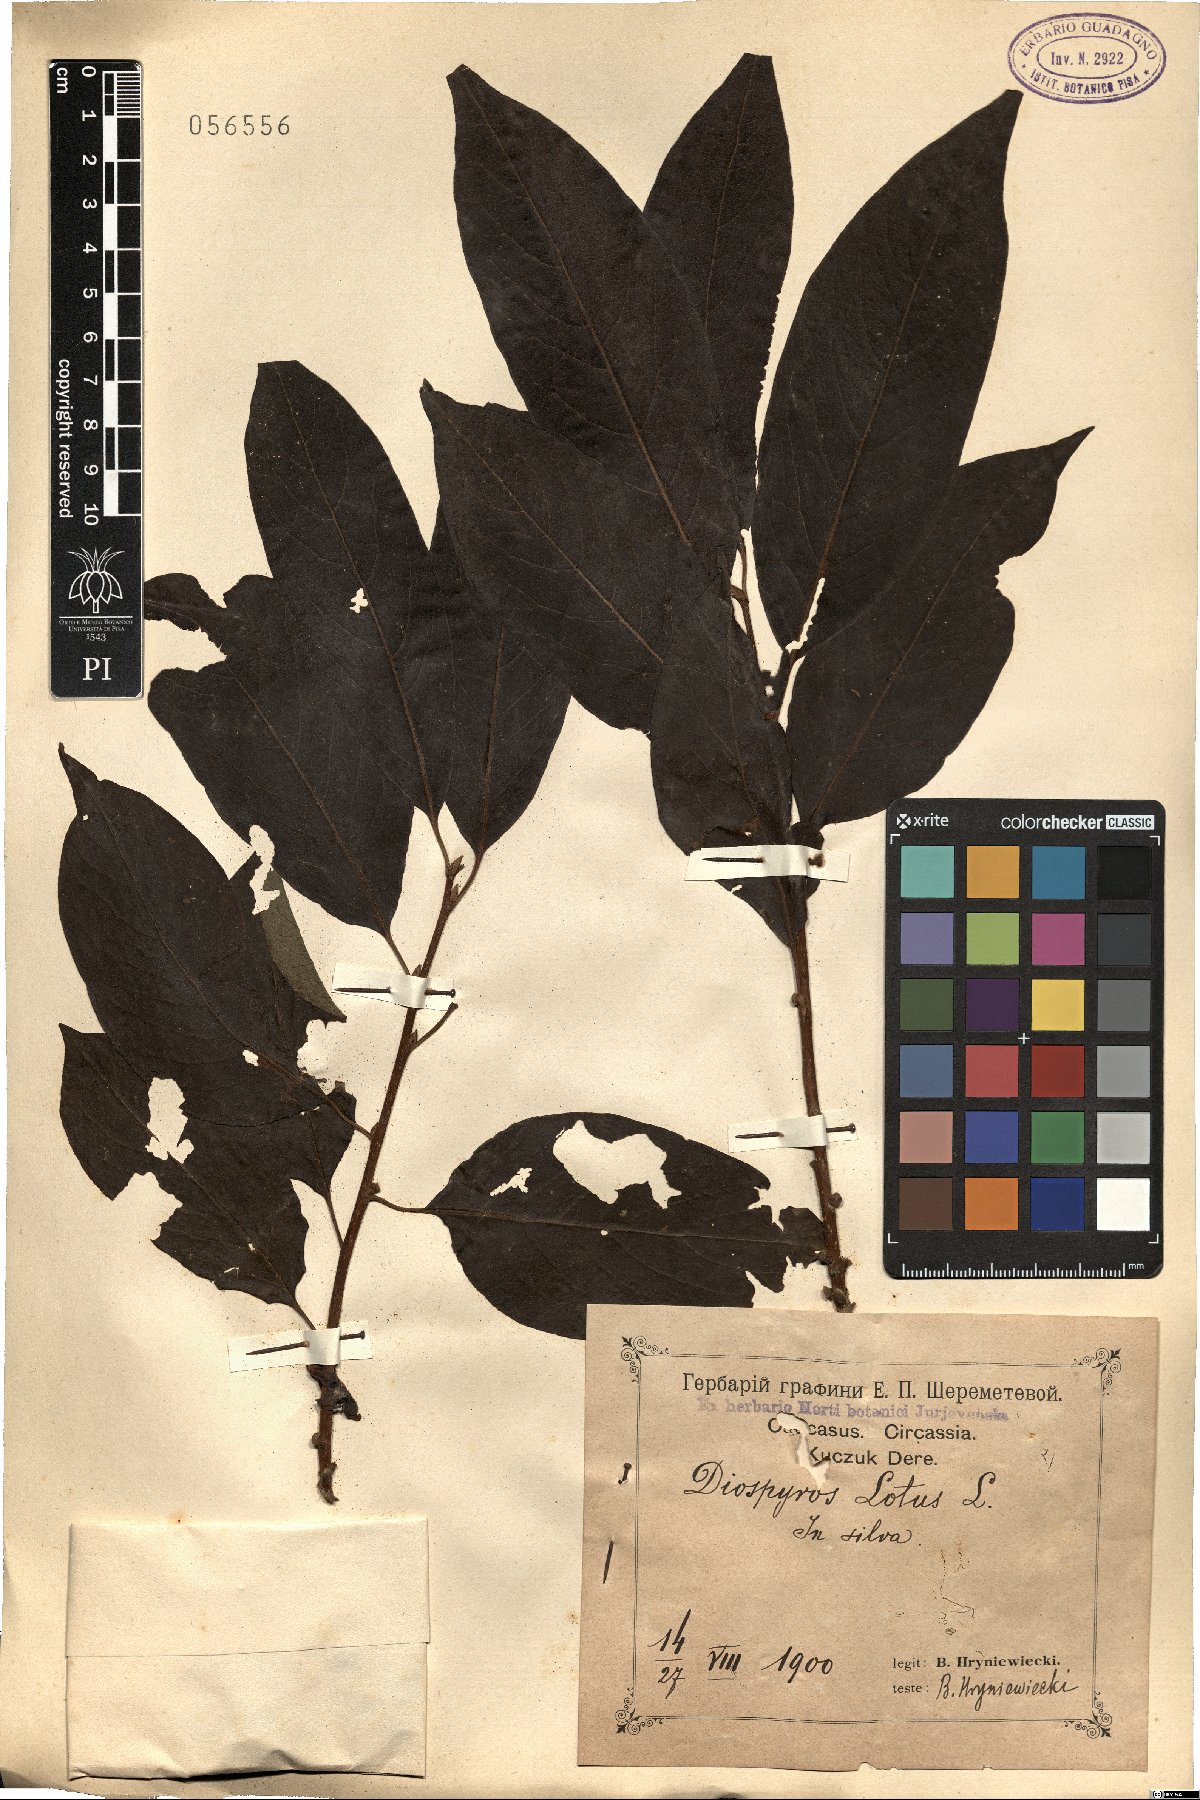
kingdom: Plantae
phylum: Tracheophyta
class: Magnoliopsida
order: Ericales
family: Ebenaceae
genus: Diospyros
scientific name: Diospyros lotus
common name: Date-plum
